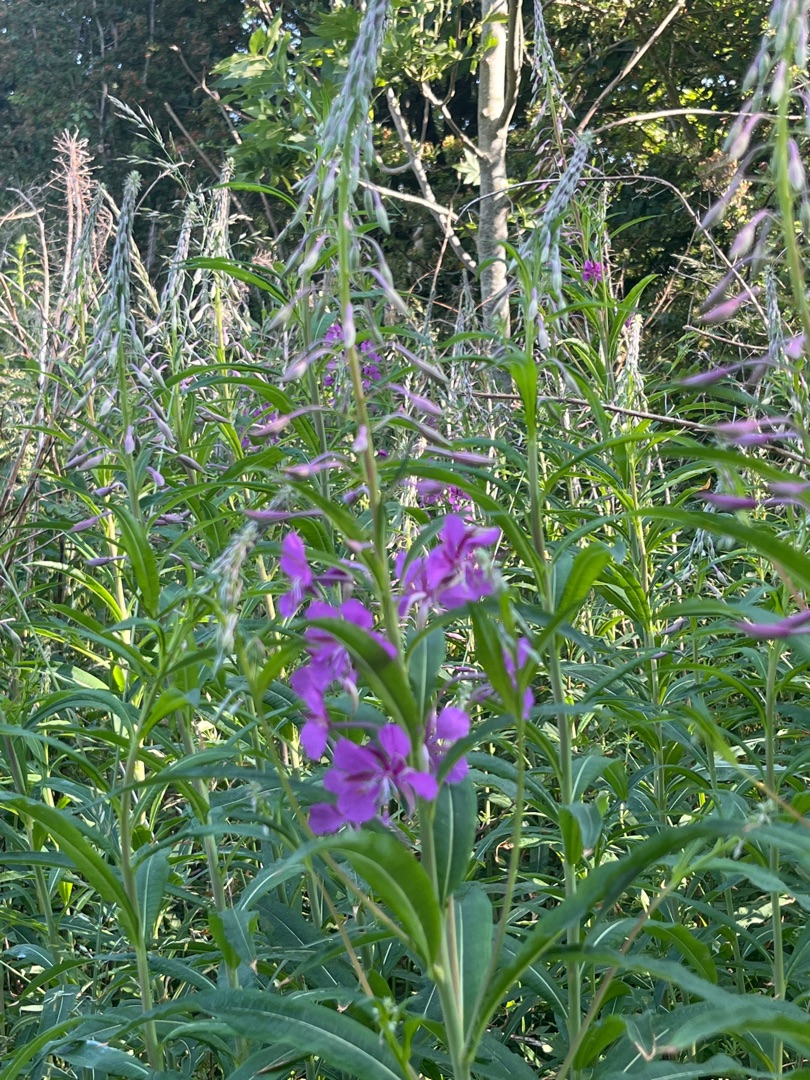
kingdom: Plantae
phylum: Tracheophyta
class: Magnoliopsida
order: Myrtales
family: Onagraceae
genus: Chamaenerion
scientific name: Chamaenerion angustifolium
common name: Gederams
